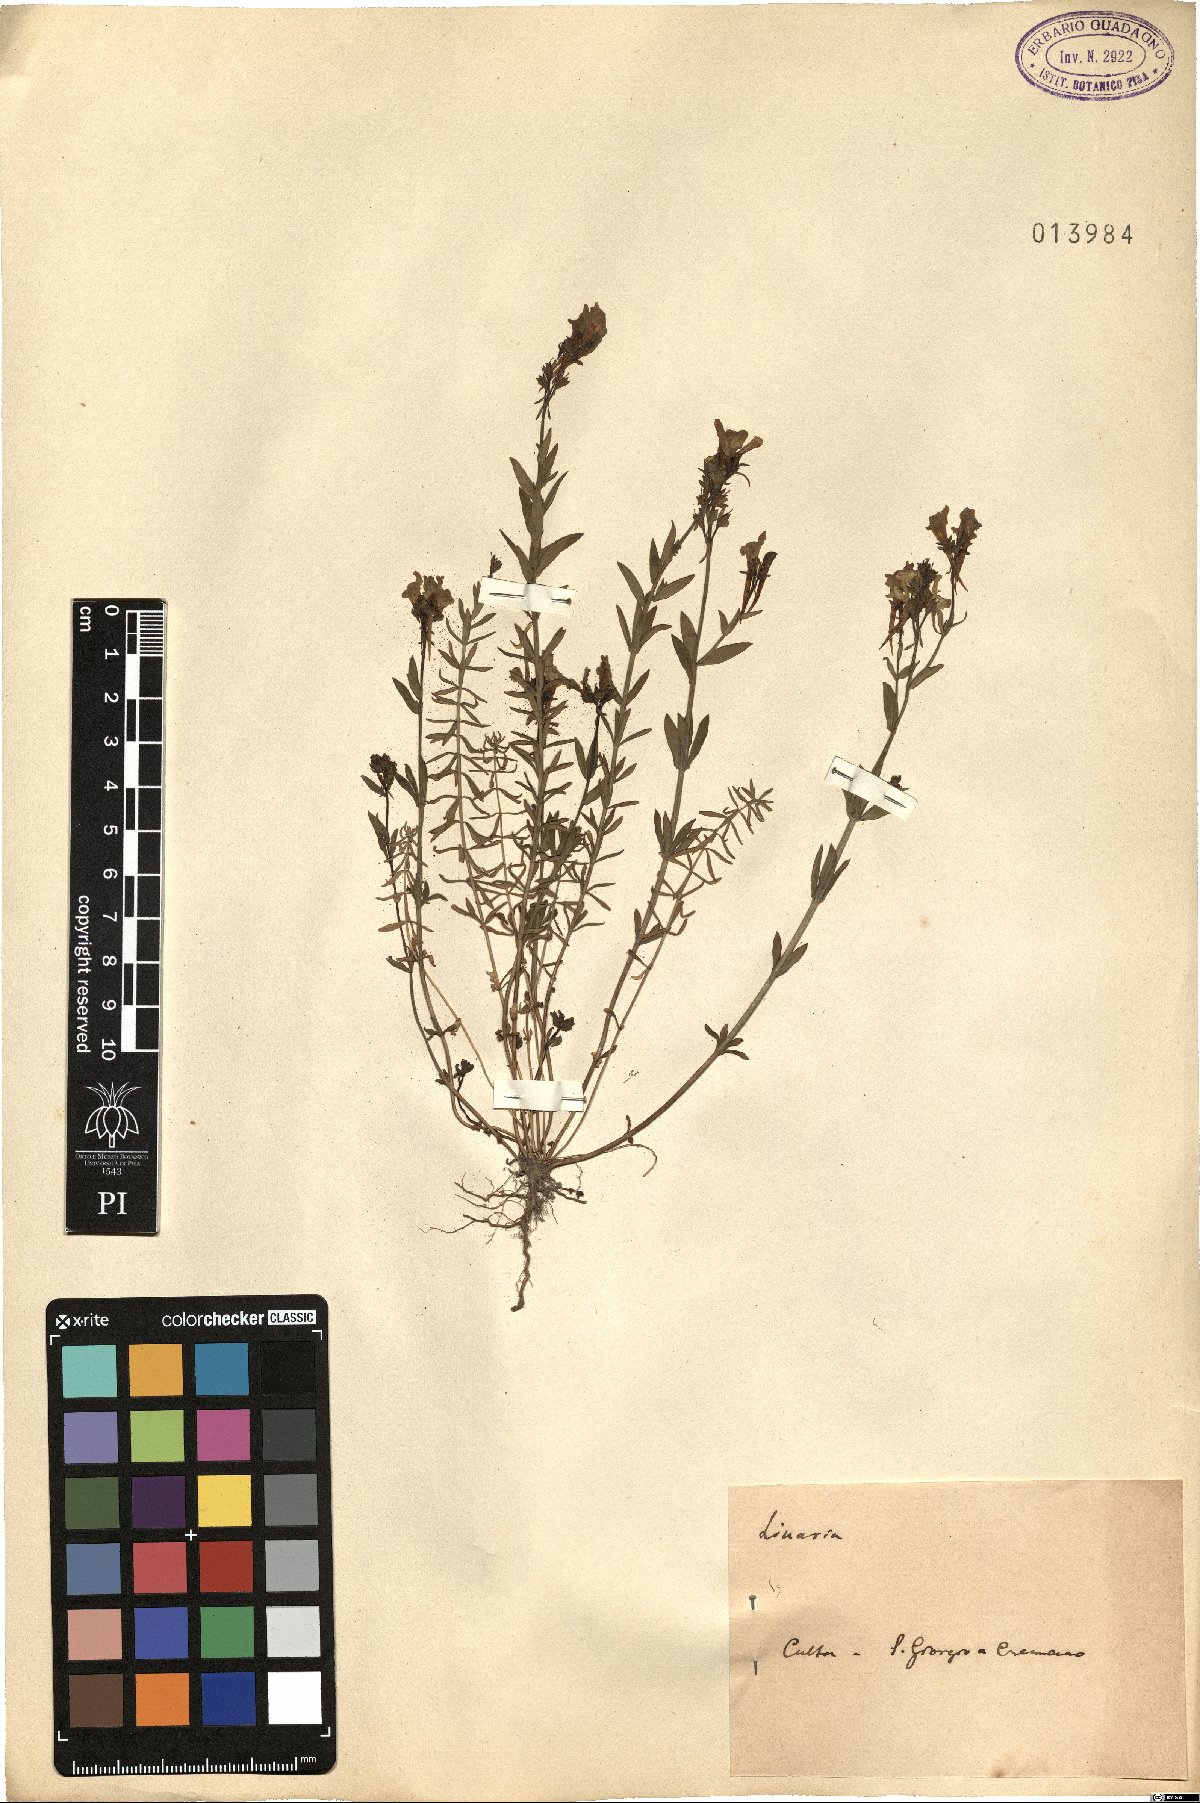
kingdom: Plantae
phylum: Tracheophyta
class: Magnoliopsida
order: Lamiales
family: Plantaginaceae
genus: Linaria
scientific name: Linaria
